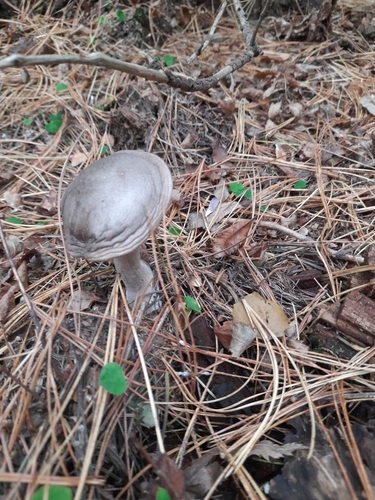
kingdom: Fungi
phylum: Basidiomycota
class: Agaricomycetes
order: Agaricales
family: Tricholomataceae
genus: Clitocybe
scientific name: Clitocybe nebularis
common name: Clouded agaric
